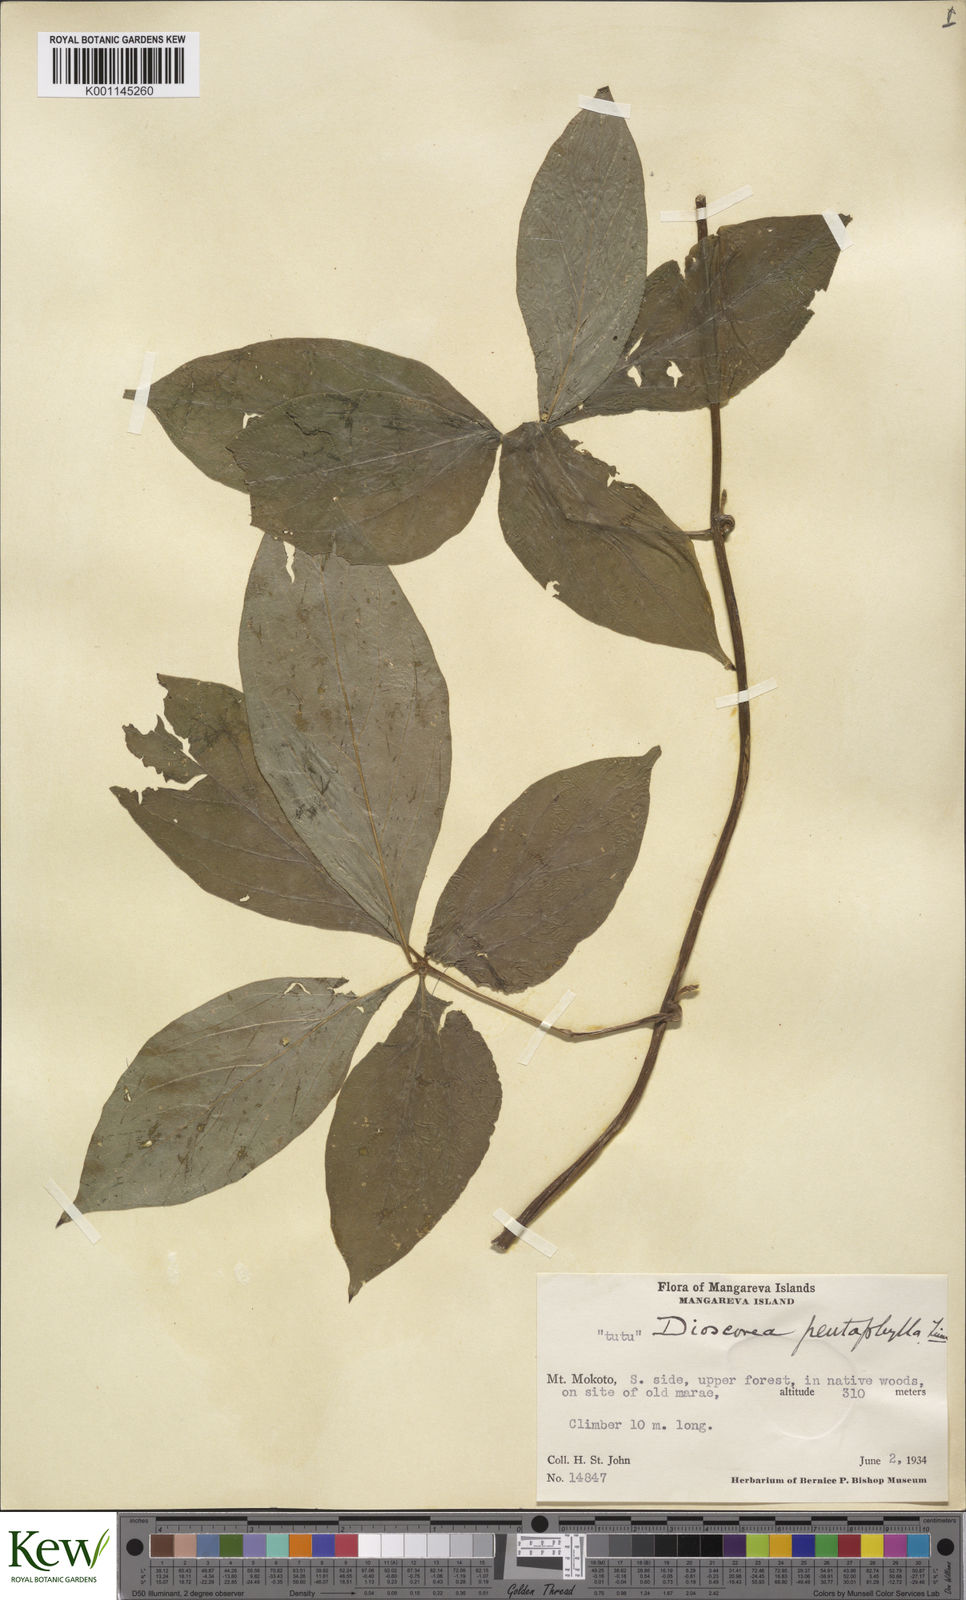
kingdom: Plantae
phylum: Tracheophyta
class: Liliopsida
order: Dioscoreales
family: Dioscoreaceae
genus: Dioscorea
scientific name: Dioscorea pentaphylla
